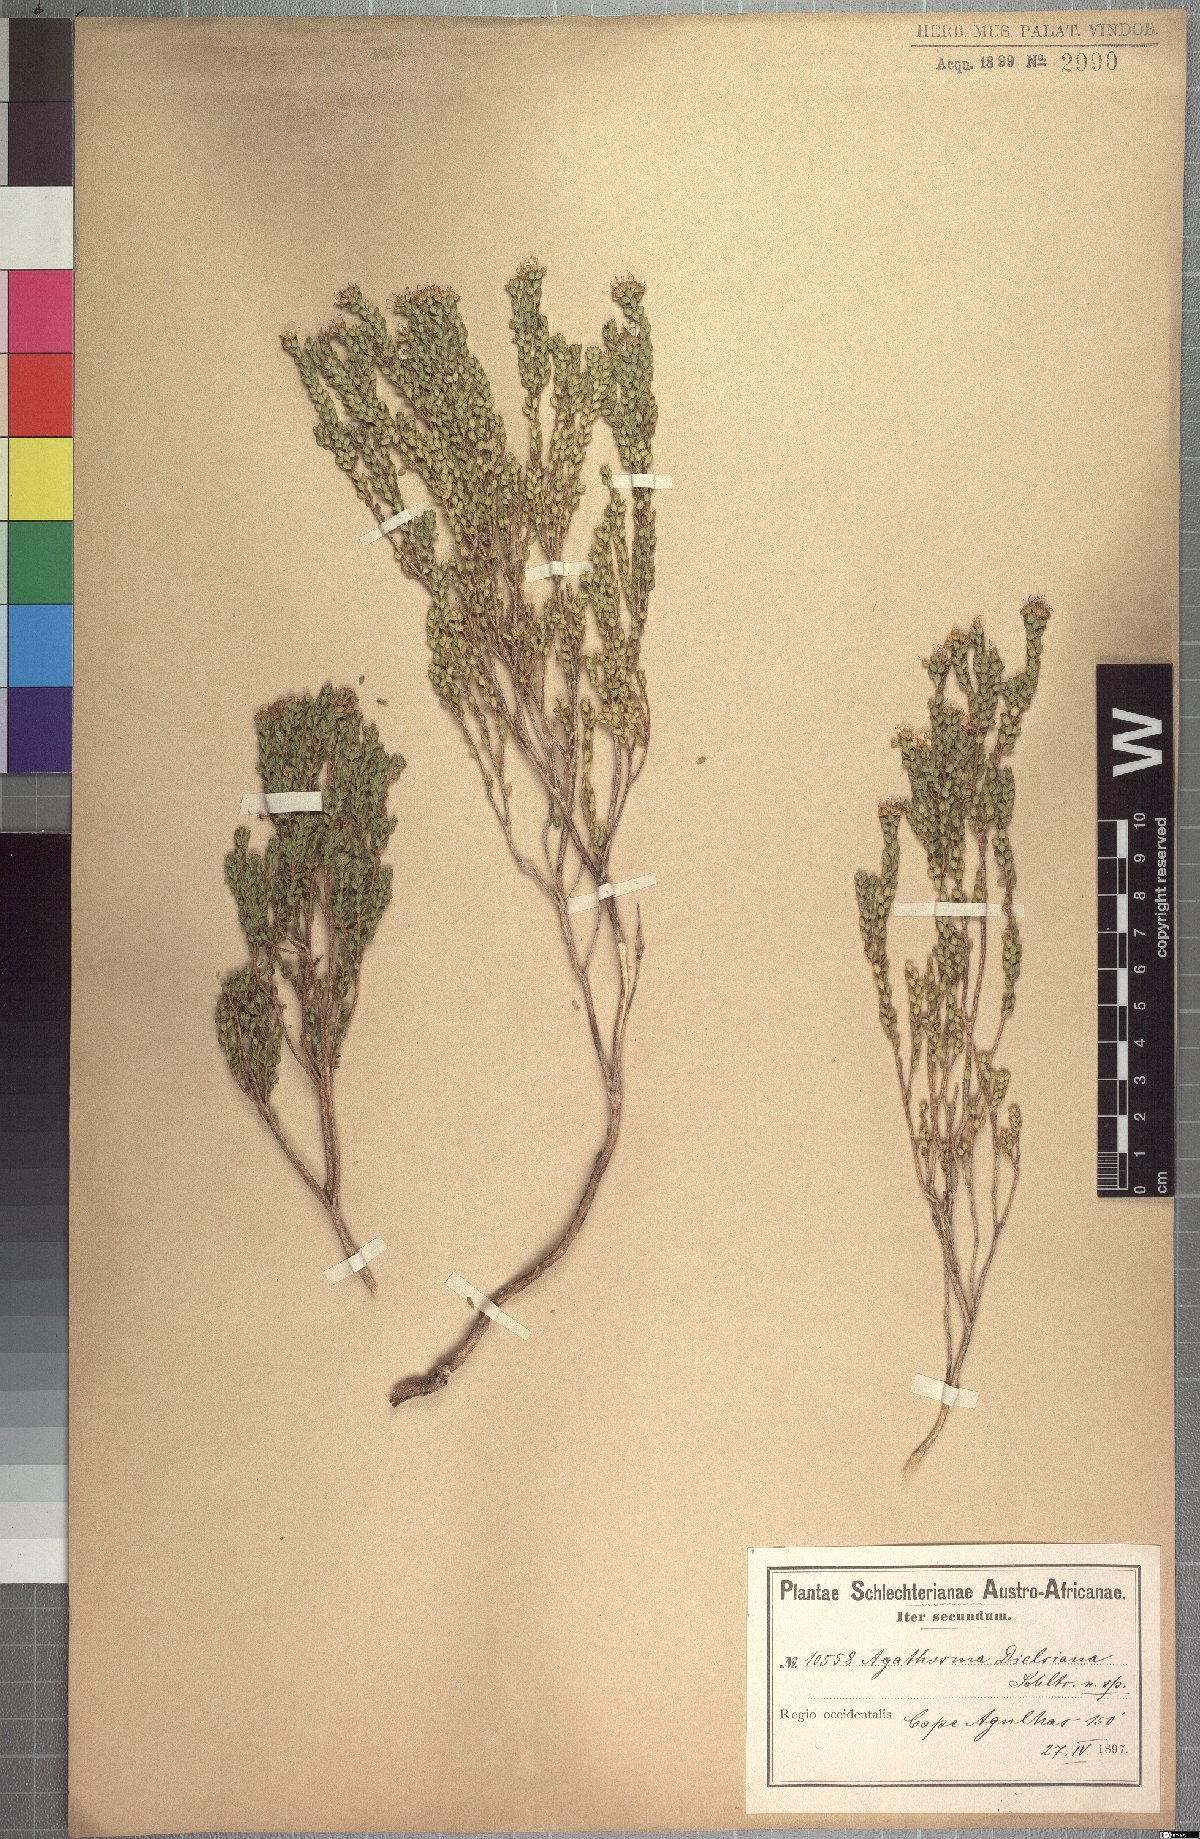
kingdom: Plantae
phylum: Tracheophyta
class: Magnoliopsida
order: Sapindales
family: Rutaceae
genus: Agathosma
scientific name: Agathosma dielsiana
